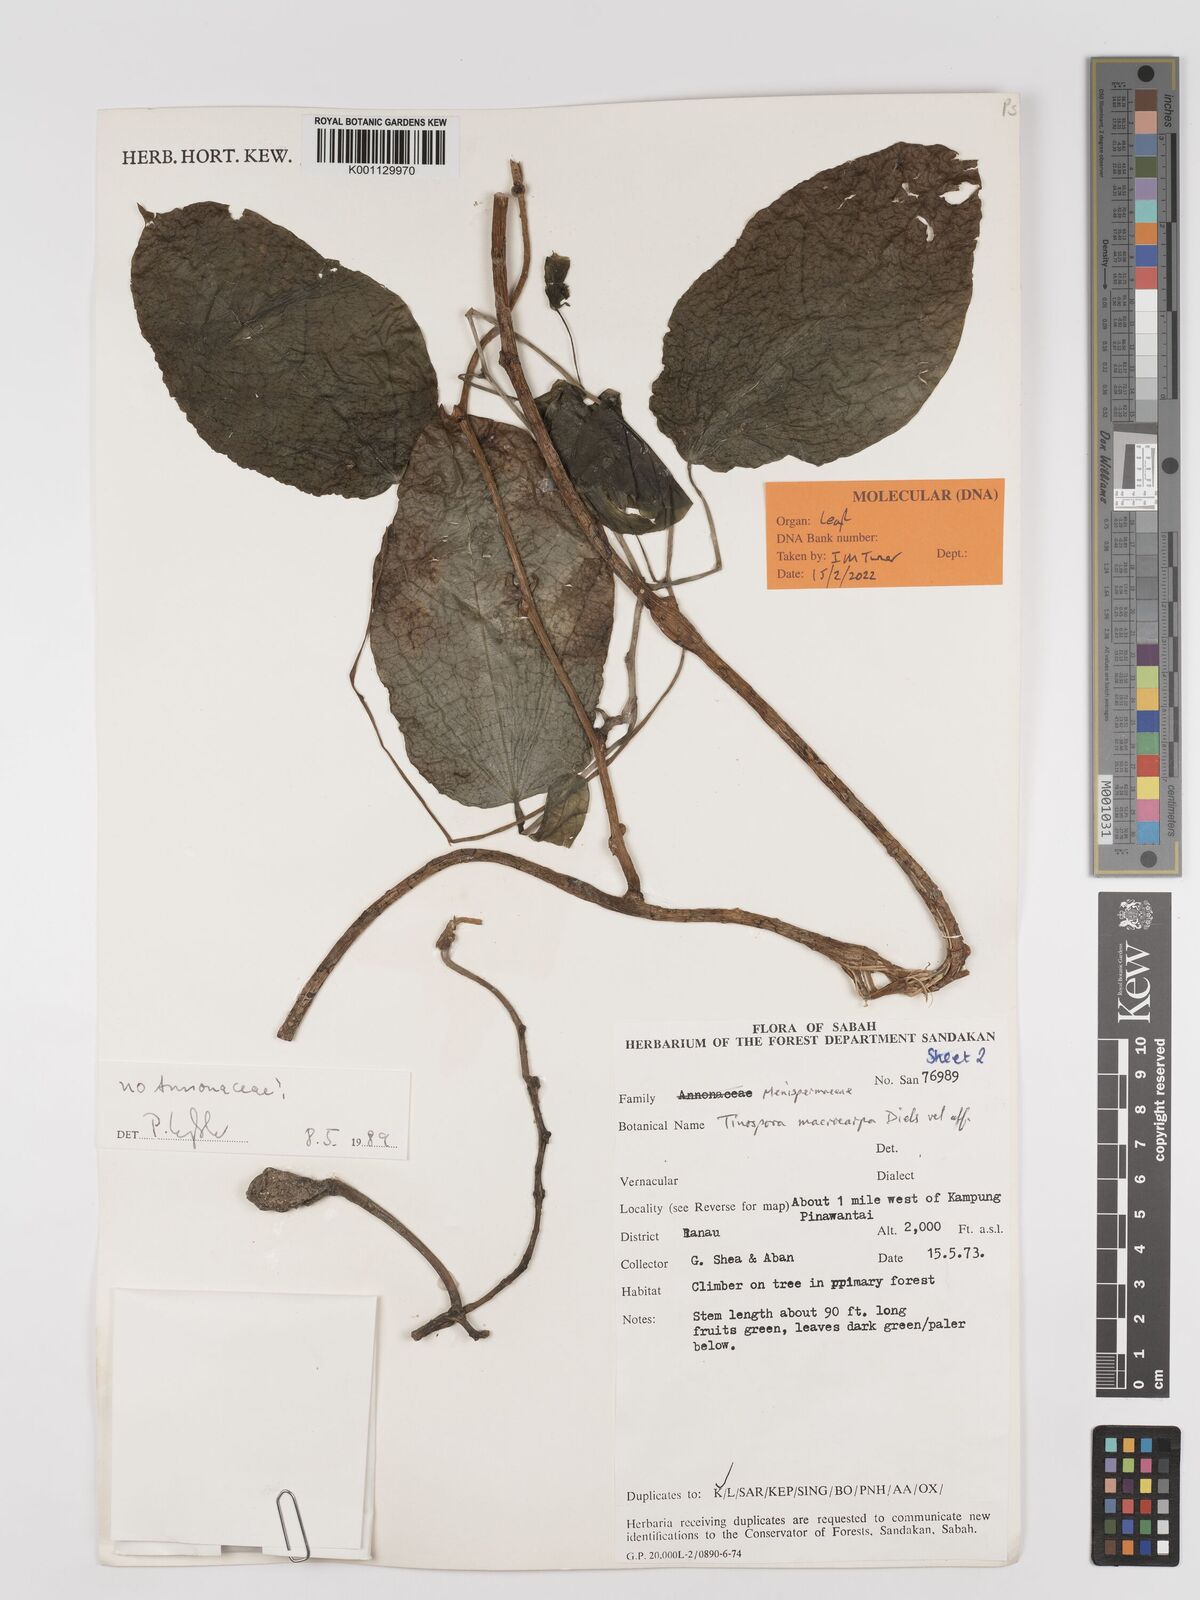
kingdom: Plantae
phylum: Tracheophyta
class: Magnoliopsida
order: Ranunculales
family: Menispermaceae
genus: Tinospora
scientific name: Tinospora macrocarpa
